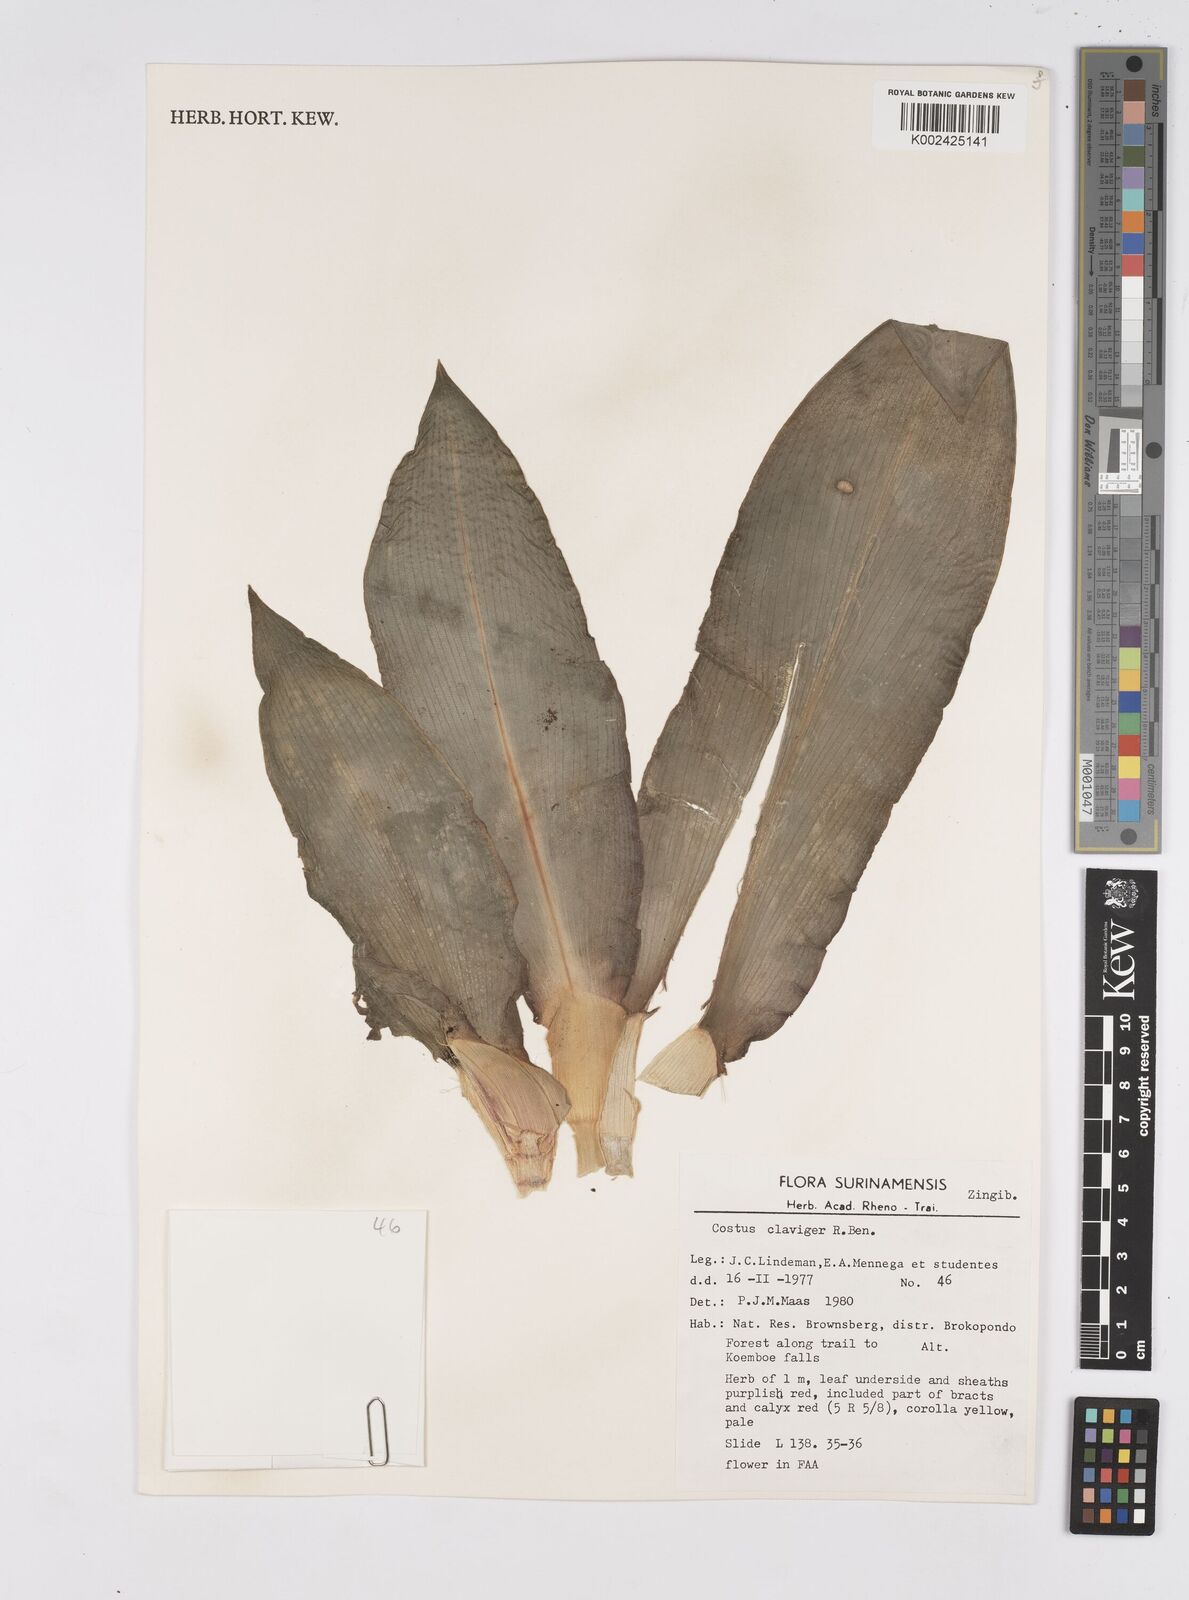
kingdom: Plantae
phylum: Tracheophyta
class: Liliopsida
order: Zingiberales
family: Costaceae
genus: Costus
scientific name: Costus claviger
